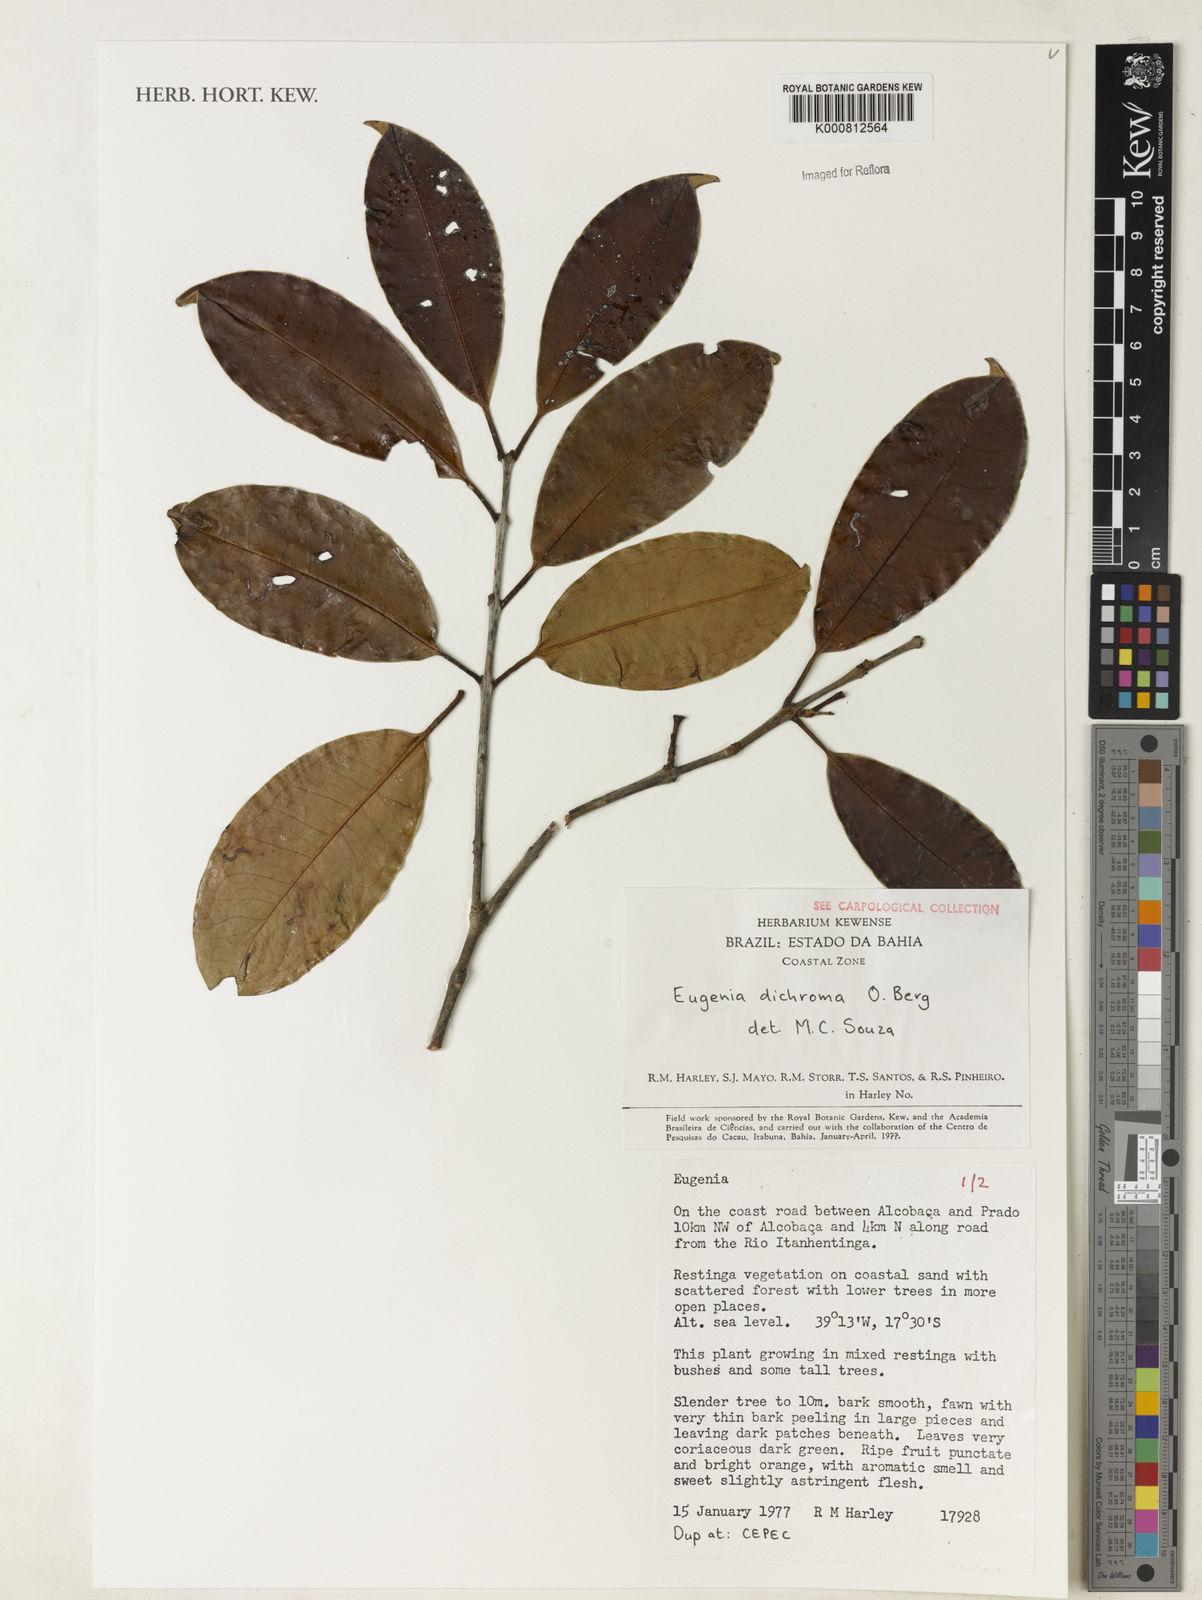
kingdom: Plantae
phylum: Tracheophyta
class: Magnoliopsida
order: Myrtales
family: Myrtaceae
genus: Eugenia
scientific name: Eugenia dichroma
